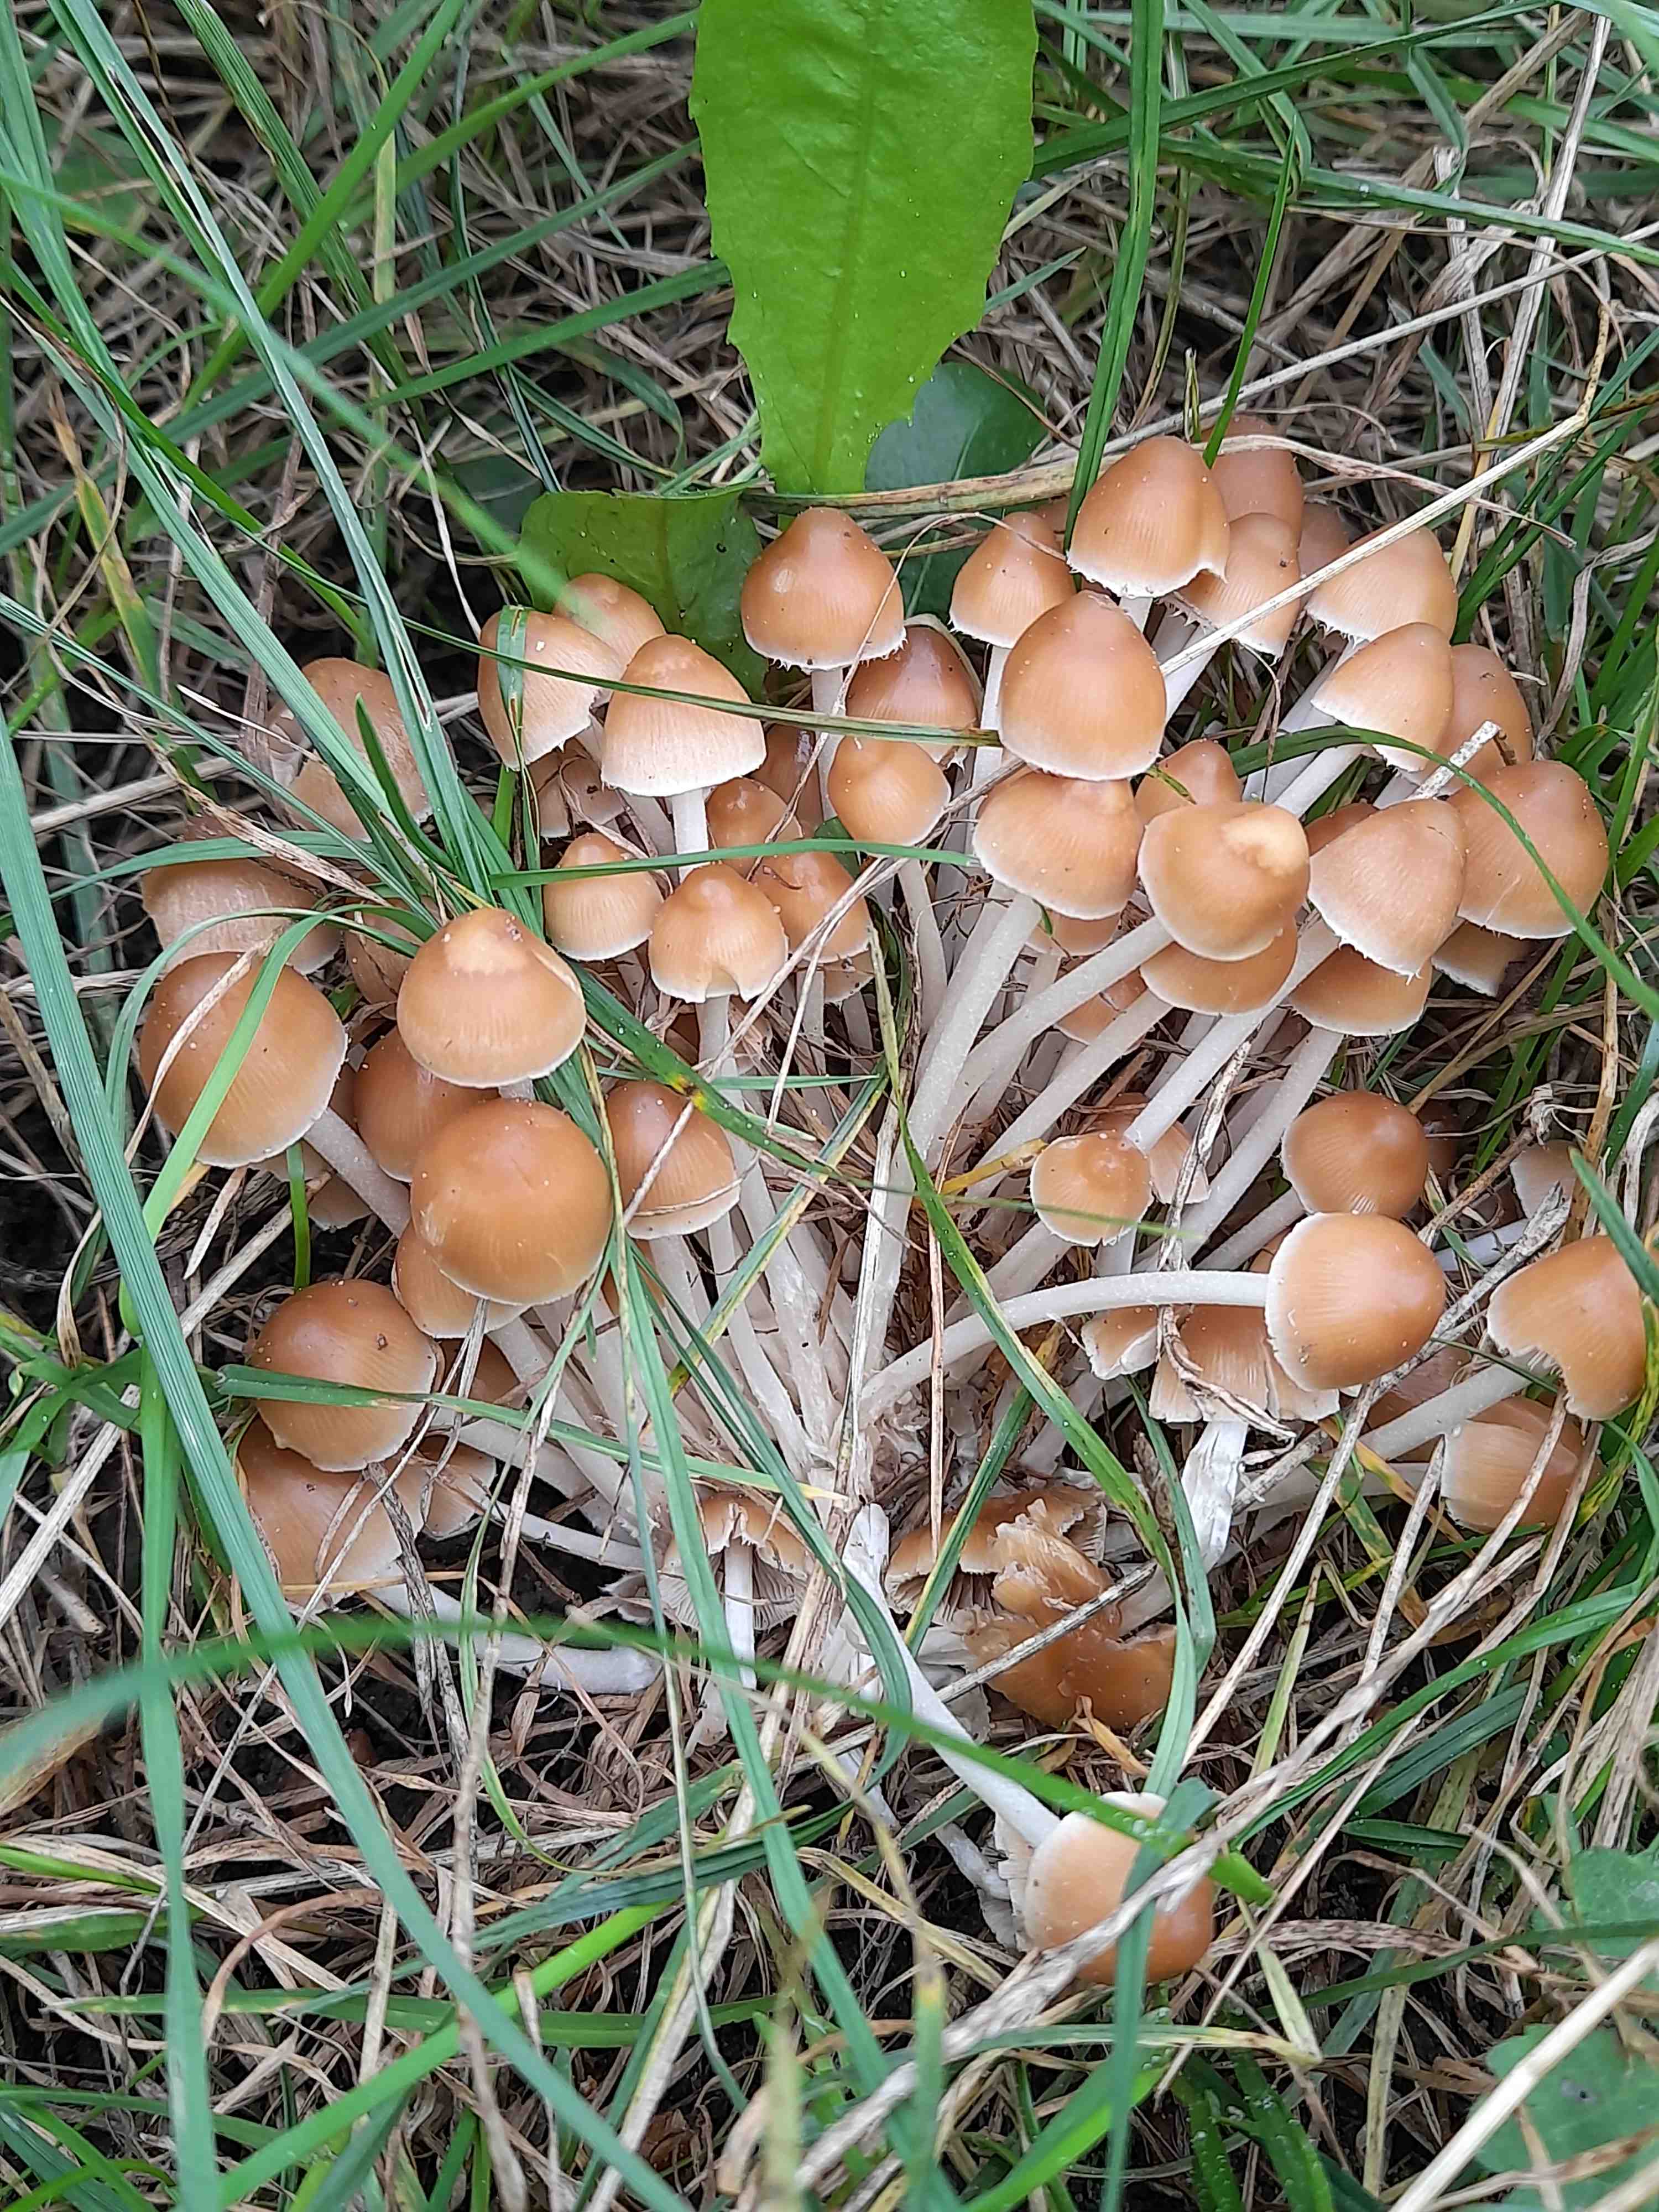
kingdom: Fungi
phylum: Basidiomycota
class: Agaricomycetes
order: Agaricales
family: Psathyrellaceae
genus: Britzelmayria
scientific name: Britzelmayria multipedata
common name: knippe-mørkhat
